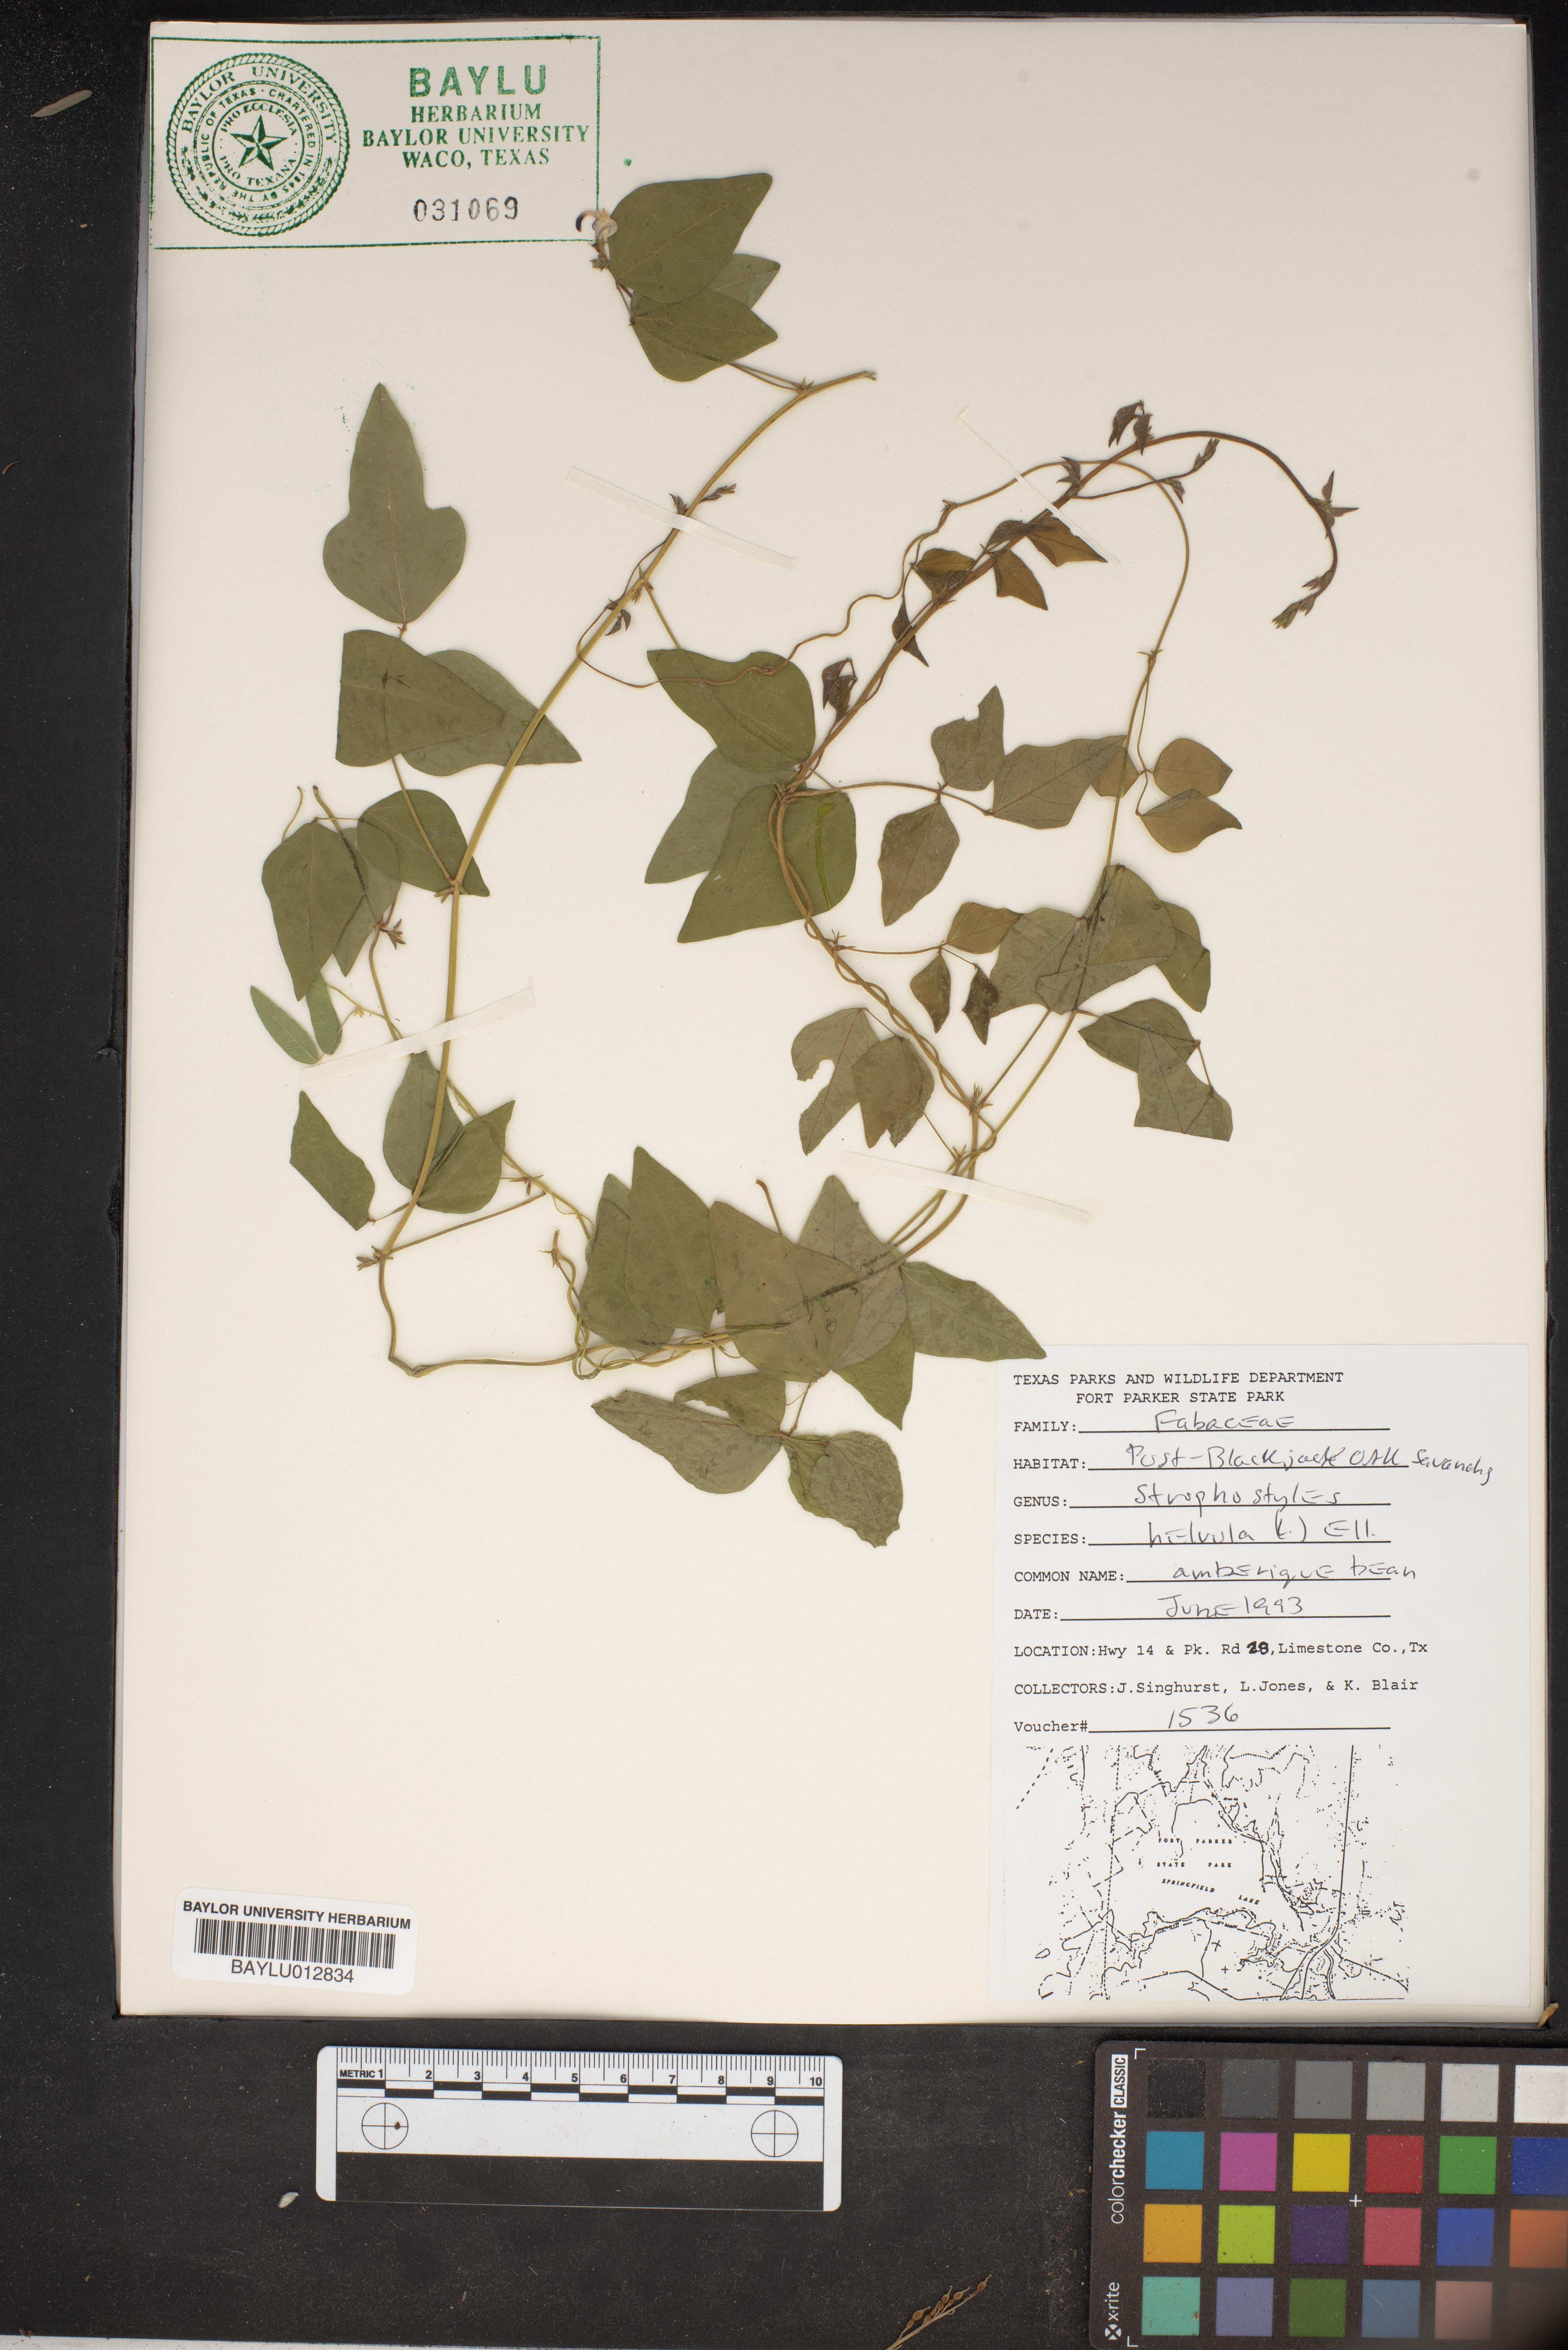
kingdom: Plantae
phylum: Tracheophyta
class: Magnoliopsida
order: Fabales
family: Fabaceae
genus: Strophostyles
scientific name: Strophostyles helvula
